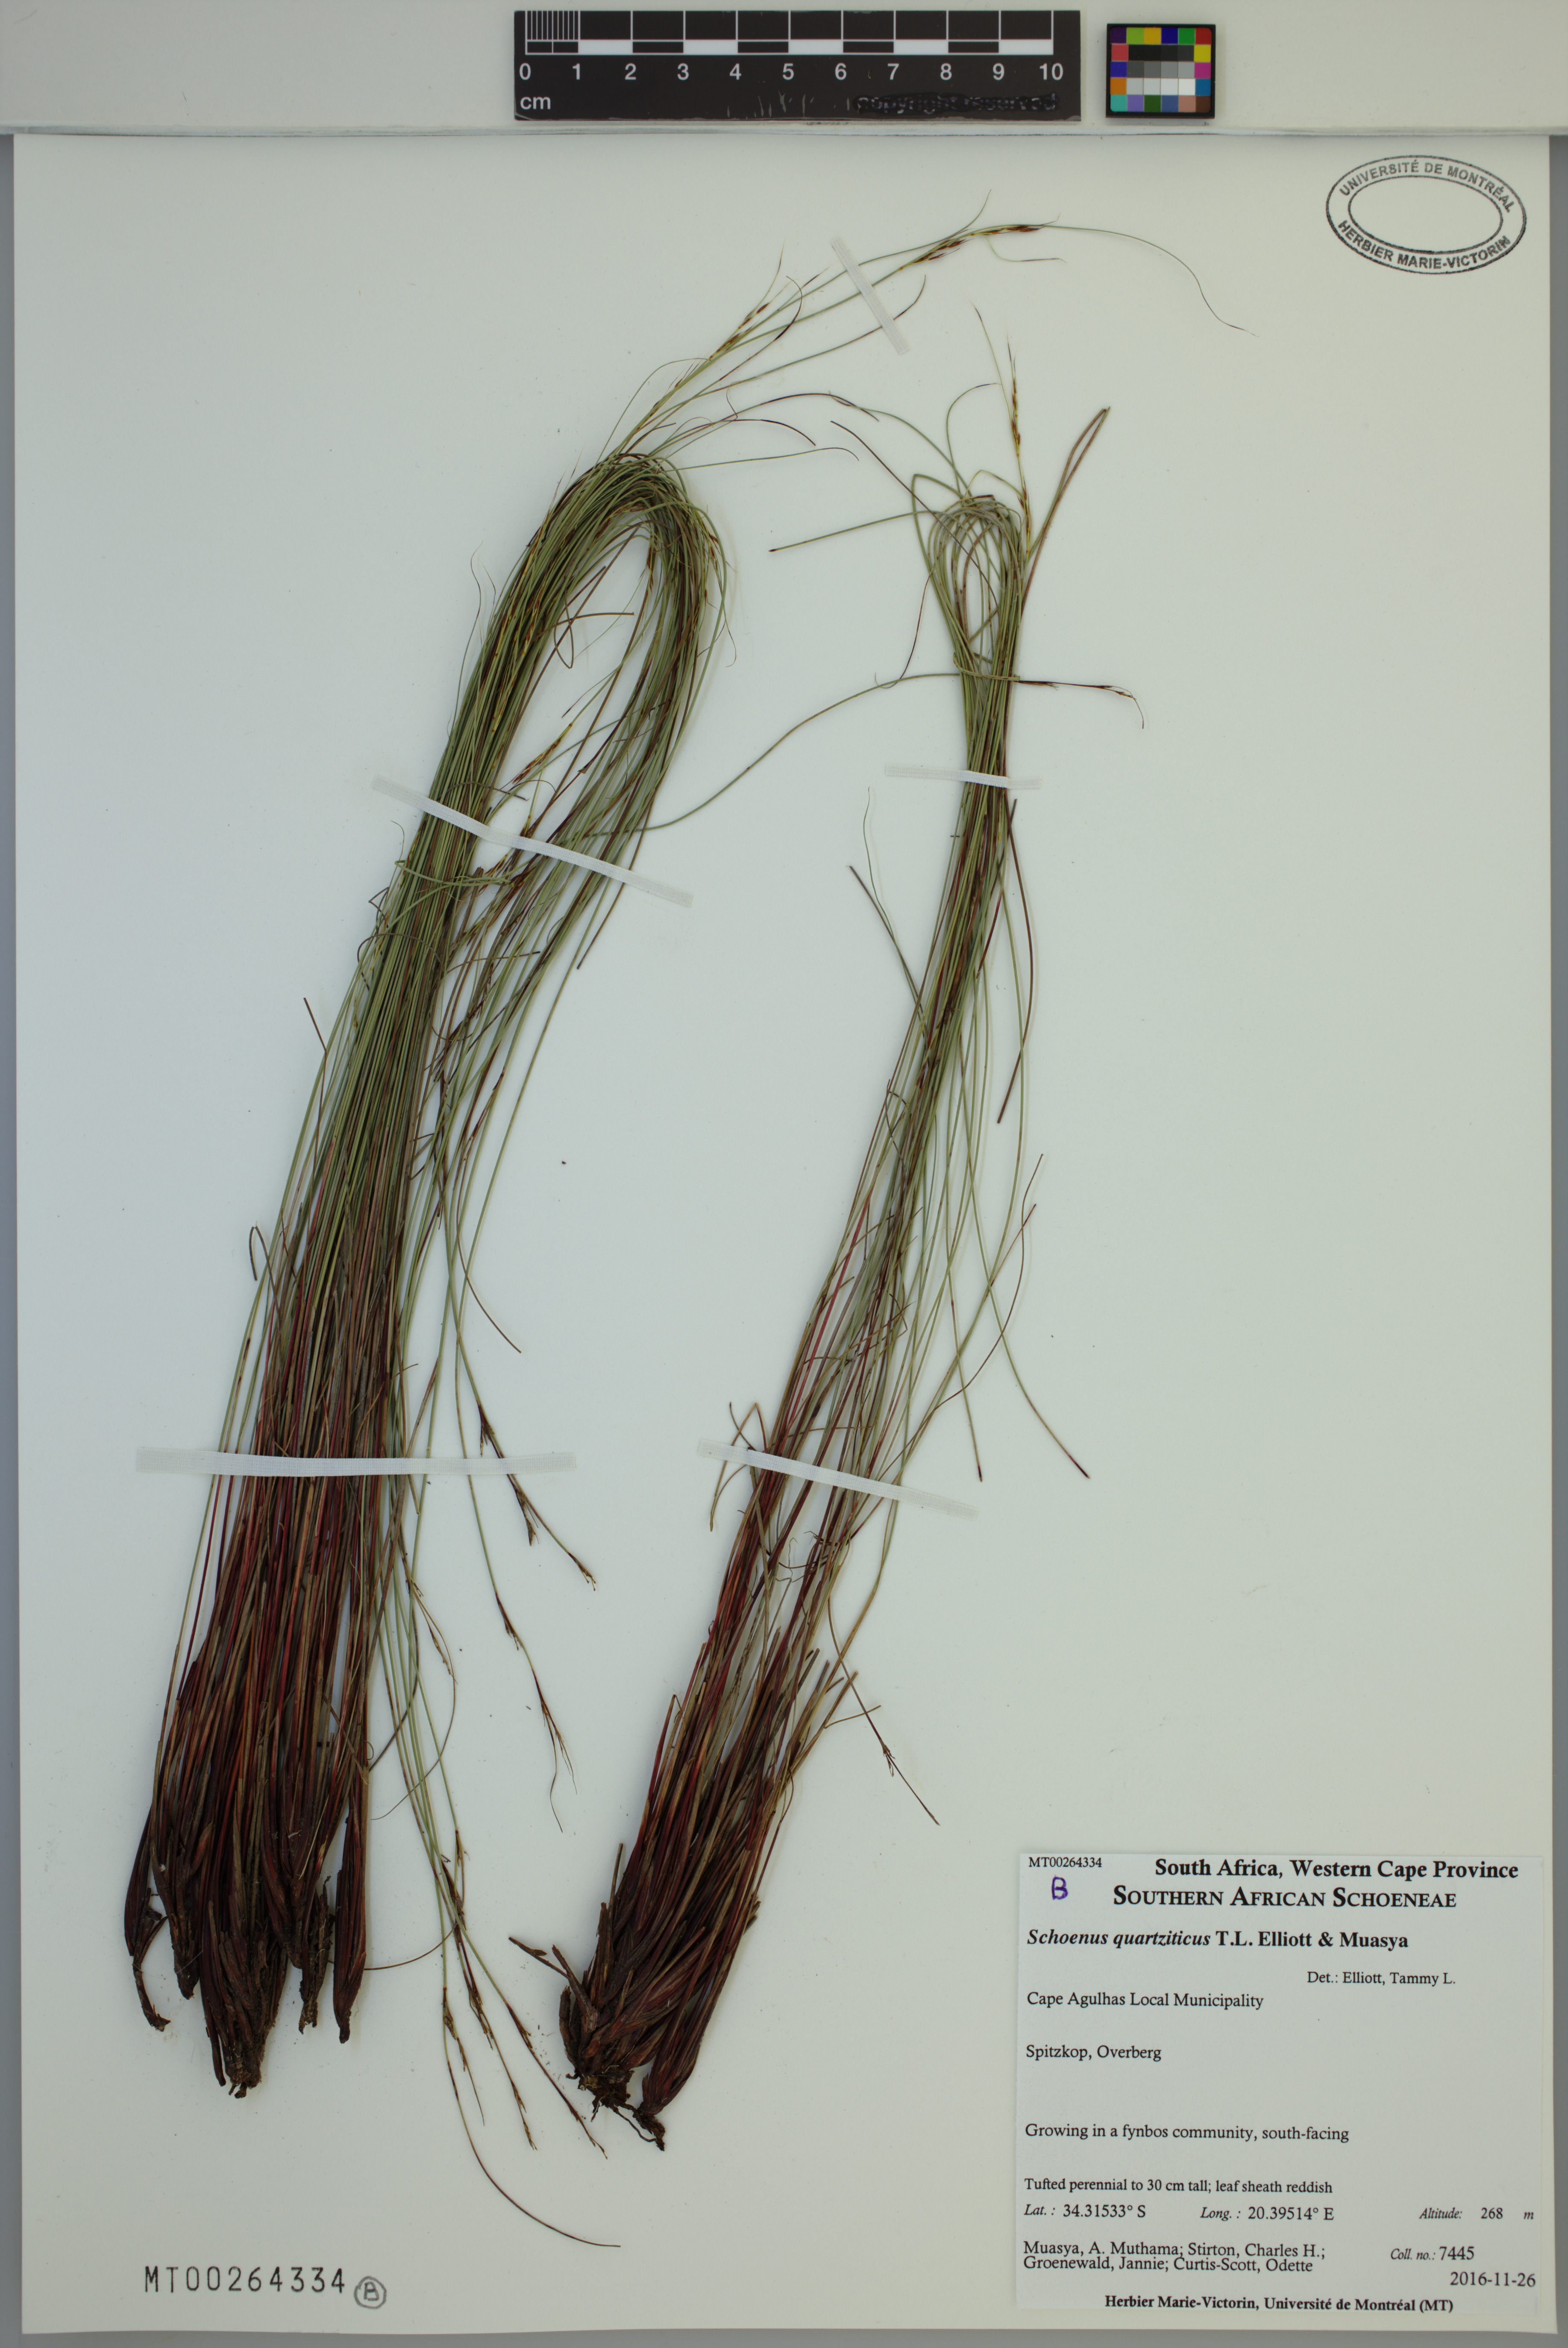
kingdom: Plantae
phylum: Tracheophyta
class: Liliopsida
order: Poales
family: Cyperaceae
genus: Schoenus
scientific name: Schoenus quartziticus
